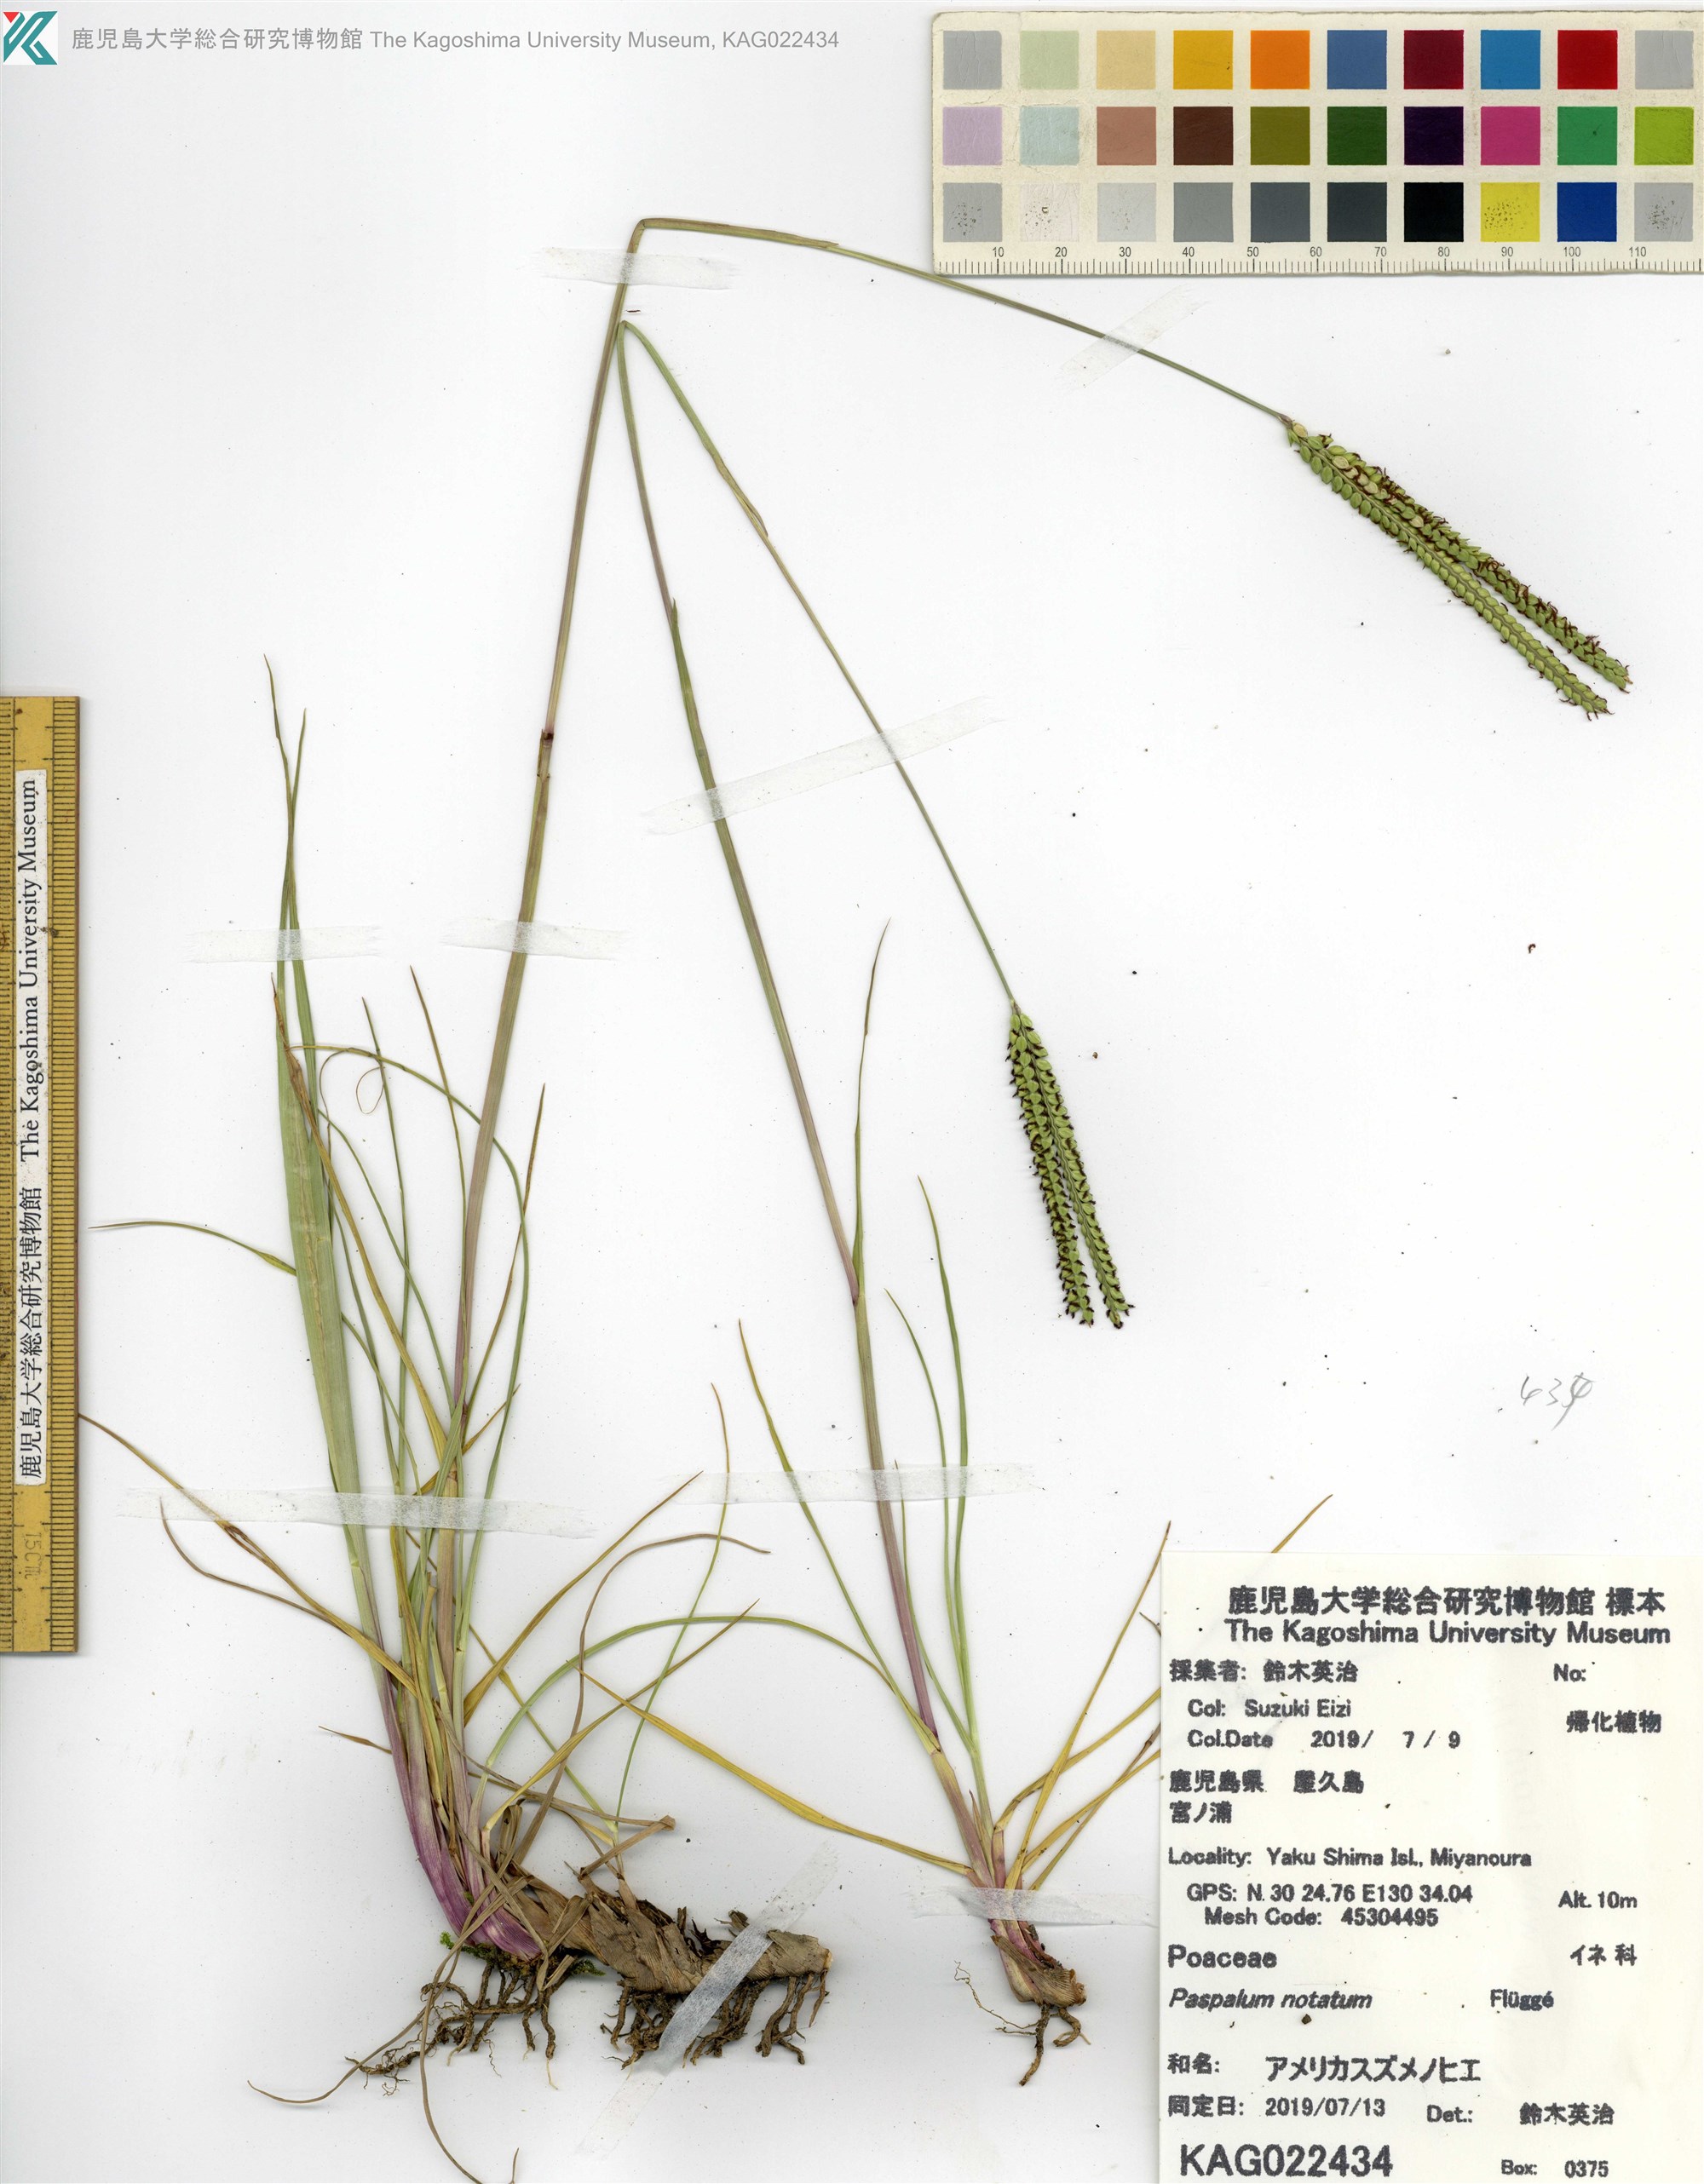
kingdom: Plantae
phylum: Tracheophyta
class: Liliopsida
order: Poales
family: Poaceae
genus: Paspalum
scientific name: Paspalum notatum
